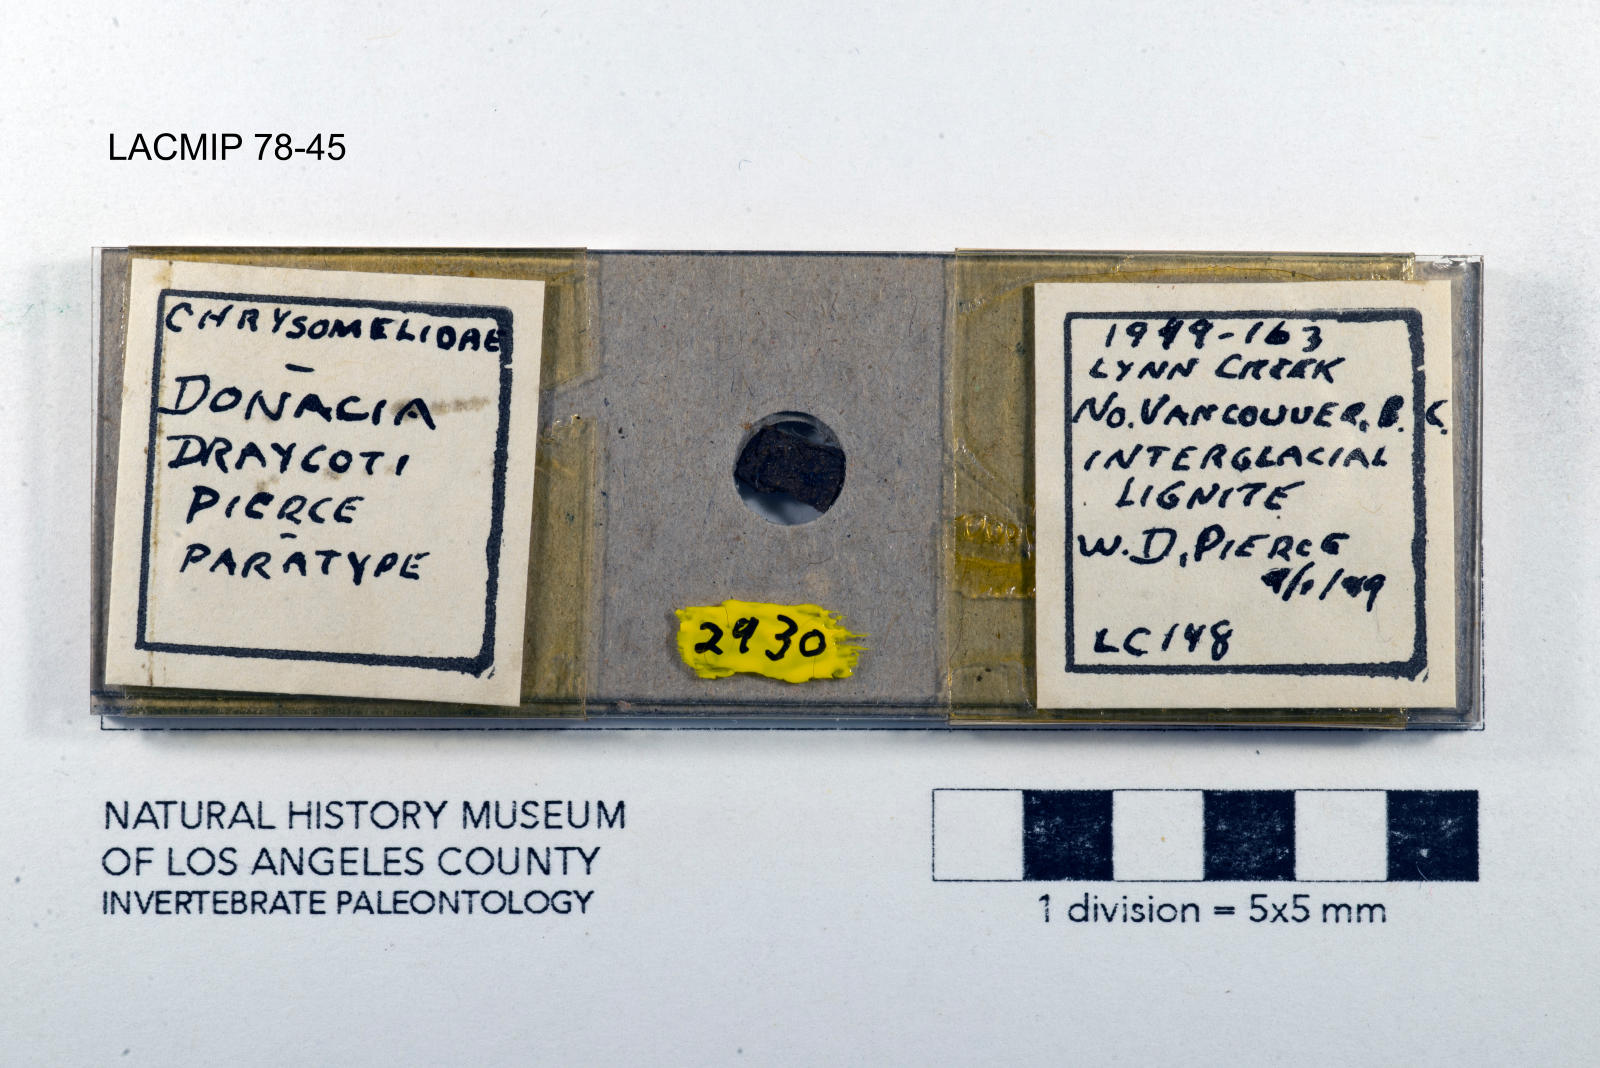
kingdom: Animalia
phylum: Arthropoda
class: Insecta
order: Coleoptera
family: Chrysomelidae
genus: Donacia
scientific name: Donacia draycoti
